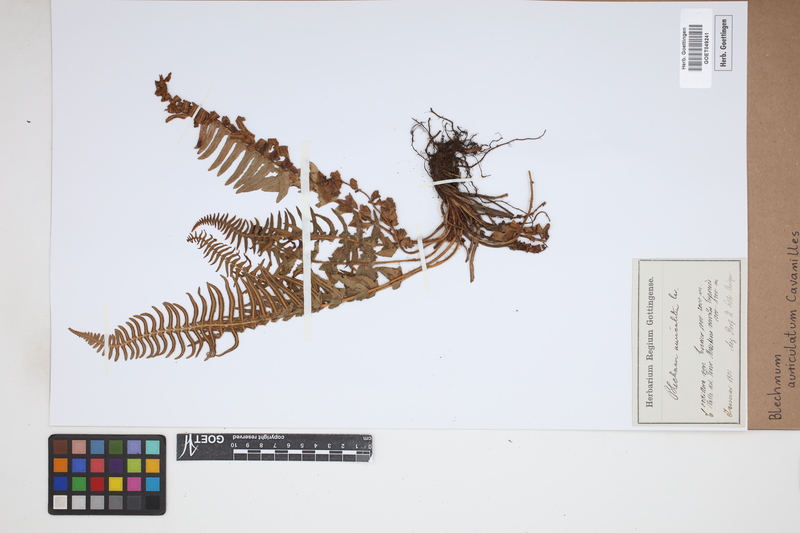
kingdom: Plantae
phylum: Tracheophyta
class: Polypodiopsida
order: Polypodiales
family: Blechnaceae
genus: Blechnum
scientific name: Blechnum auriculatum
